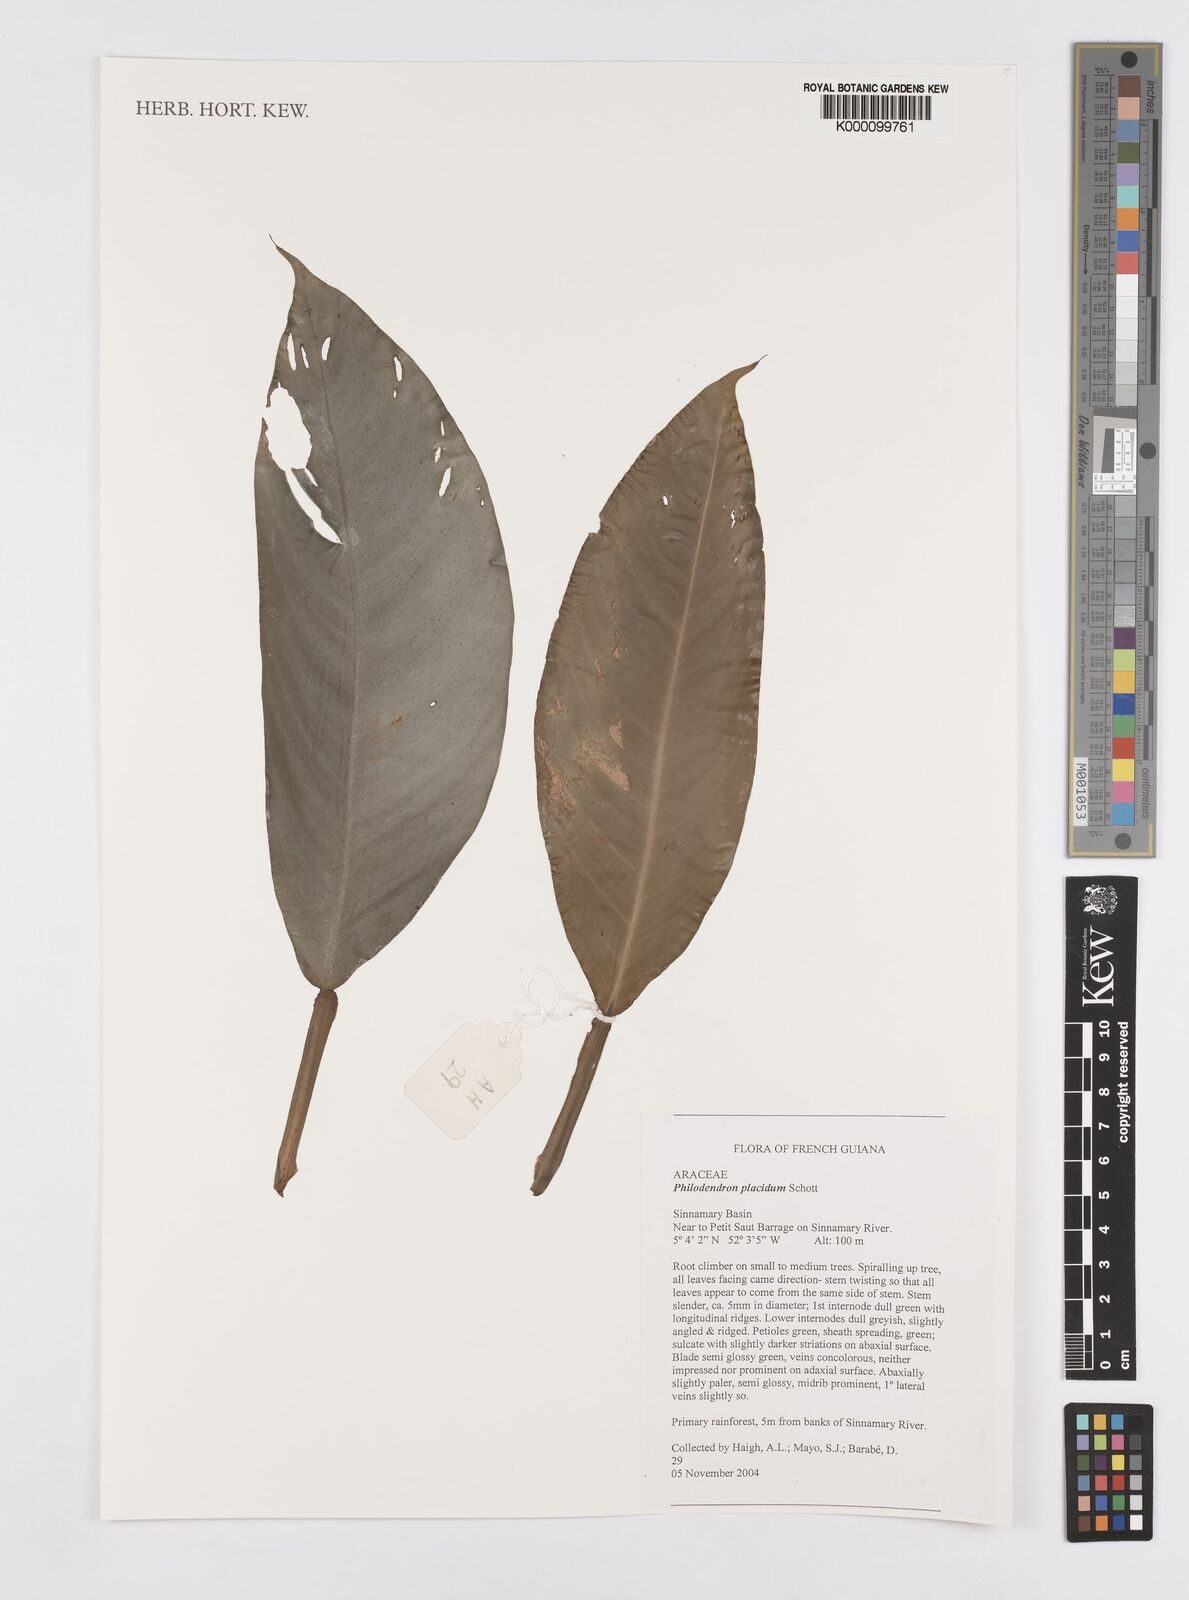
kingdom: Plantae
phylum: Tracheophyta
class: Liliopsida
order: Alismatales
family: Araceae
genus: Philodendron
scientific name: Philodendron placidum
